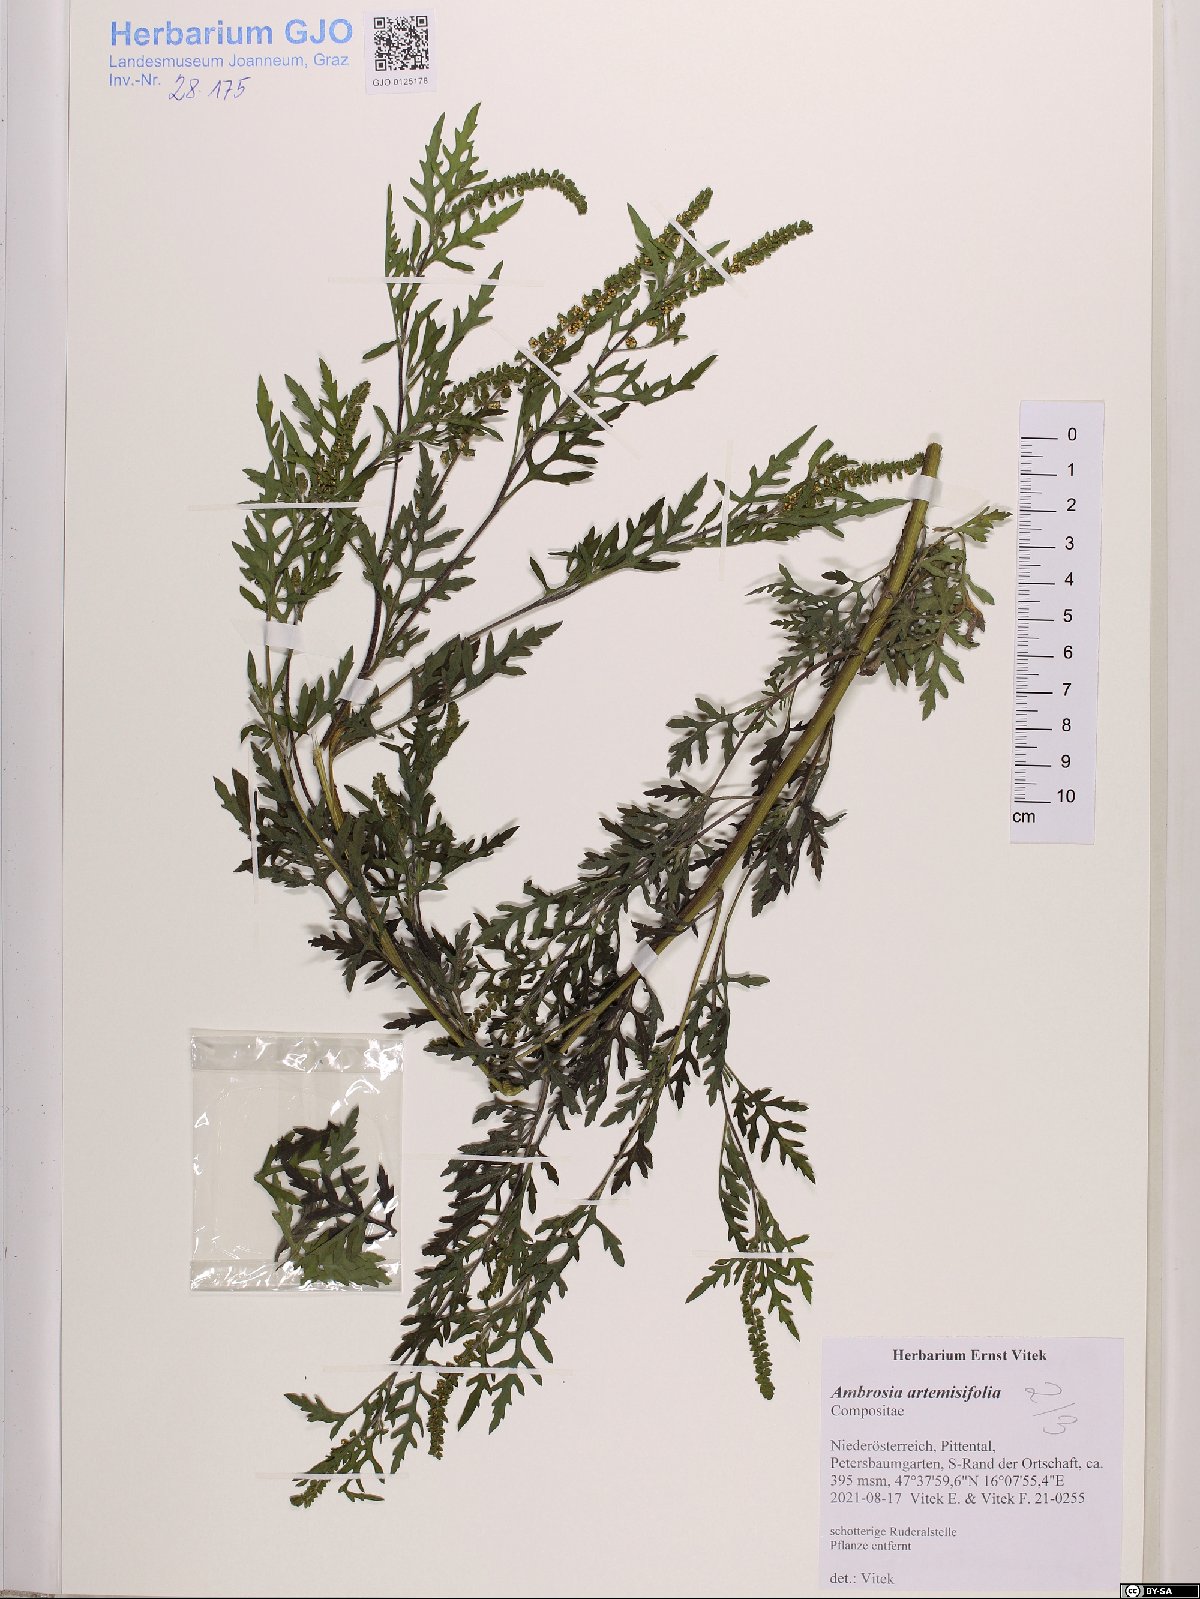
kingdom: Plantae
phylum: Tracheophyta
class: Magnoliopsida
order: Asterales
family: Asteraceae
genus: Ambrosia
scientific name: Ambrosia artemisiifolia
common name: Annual ragweed
